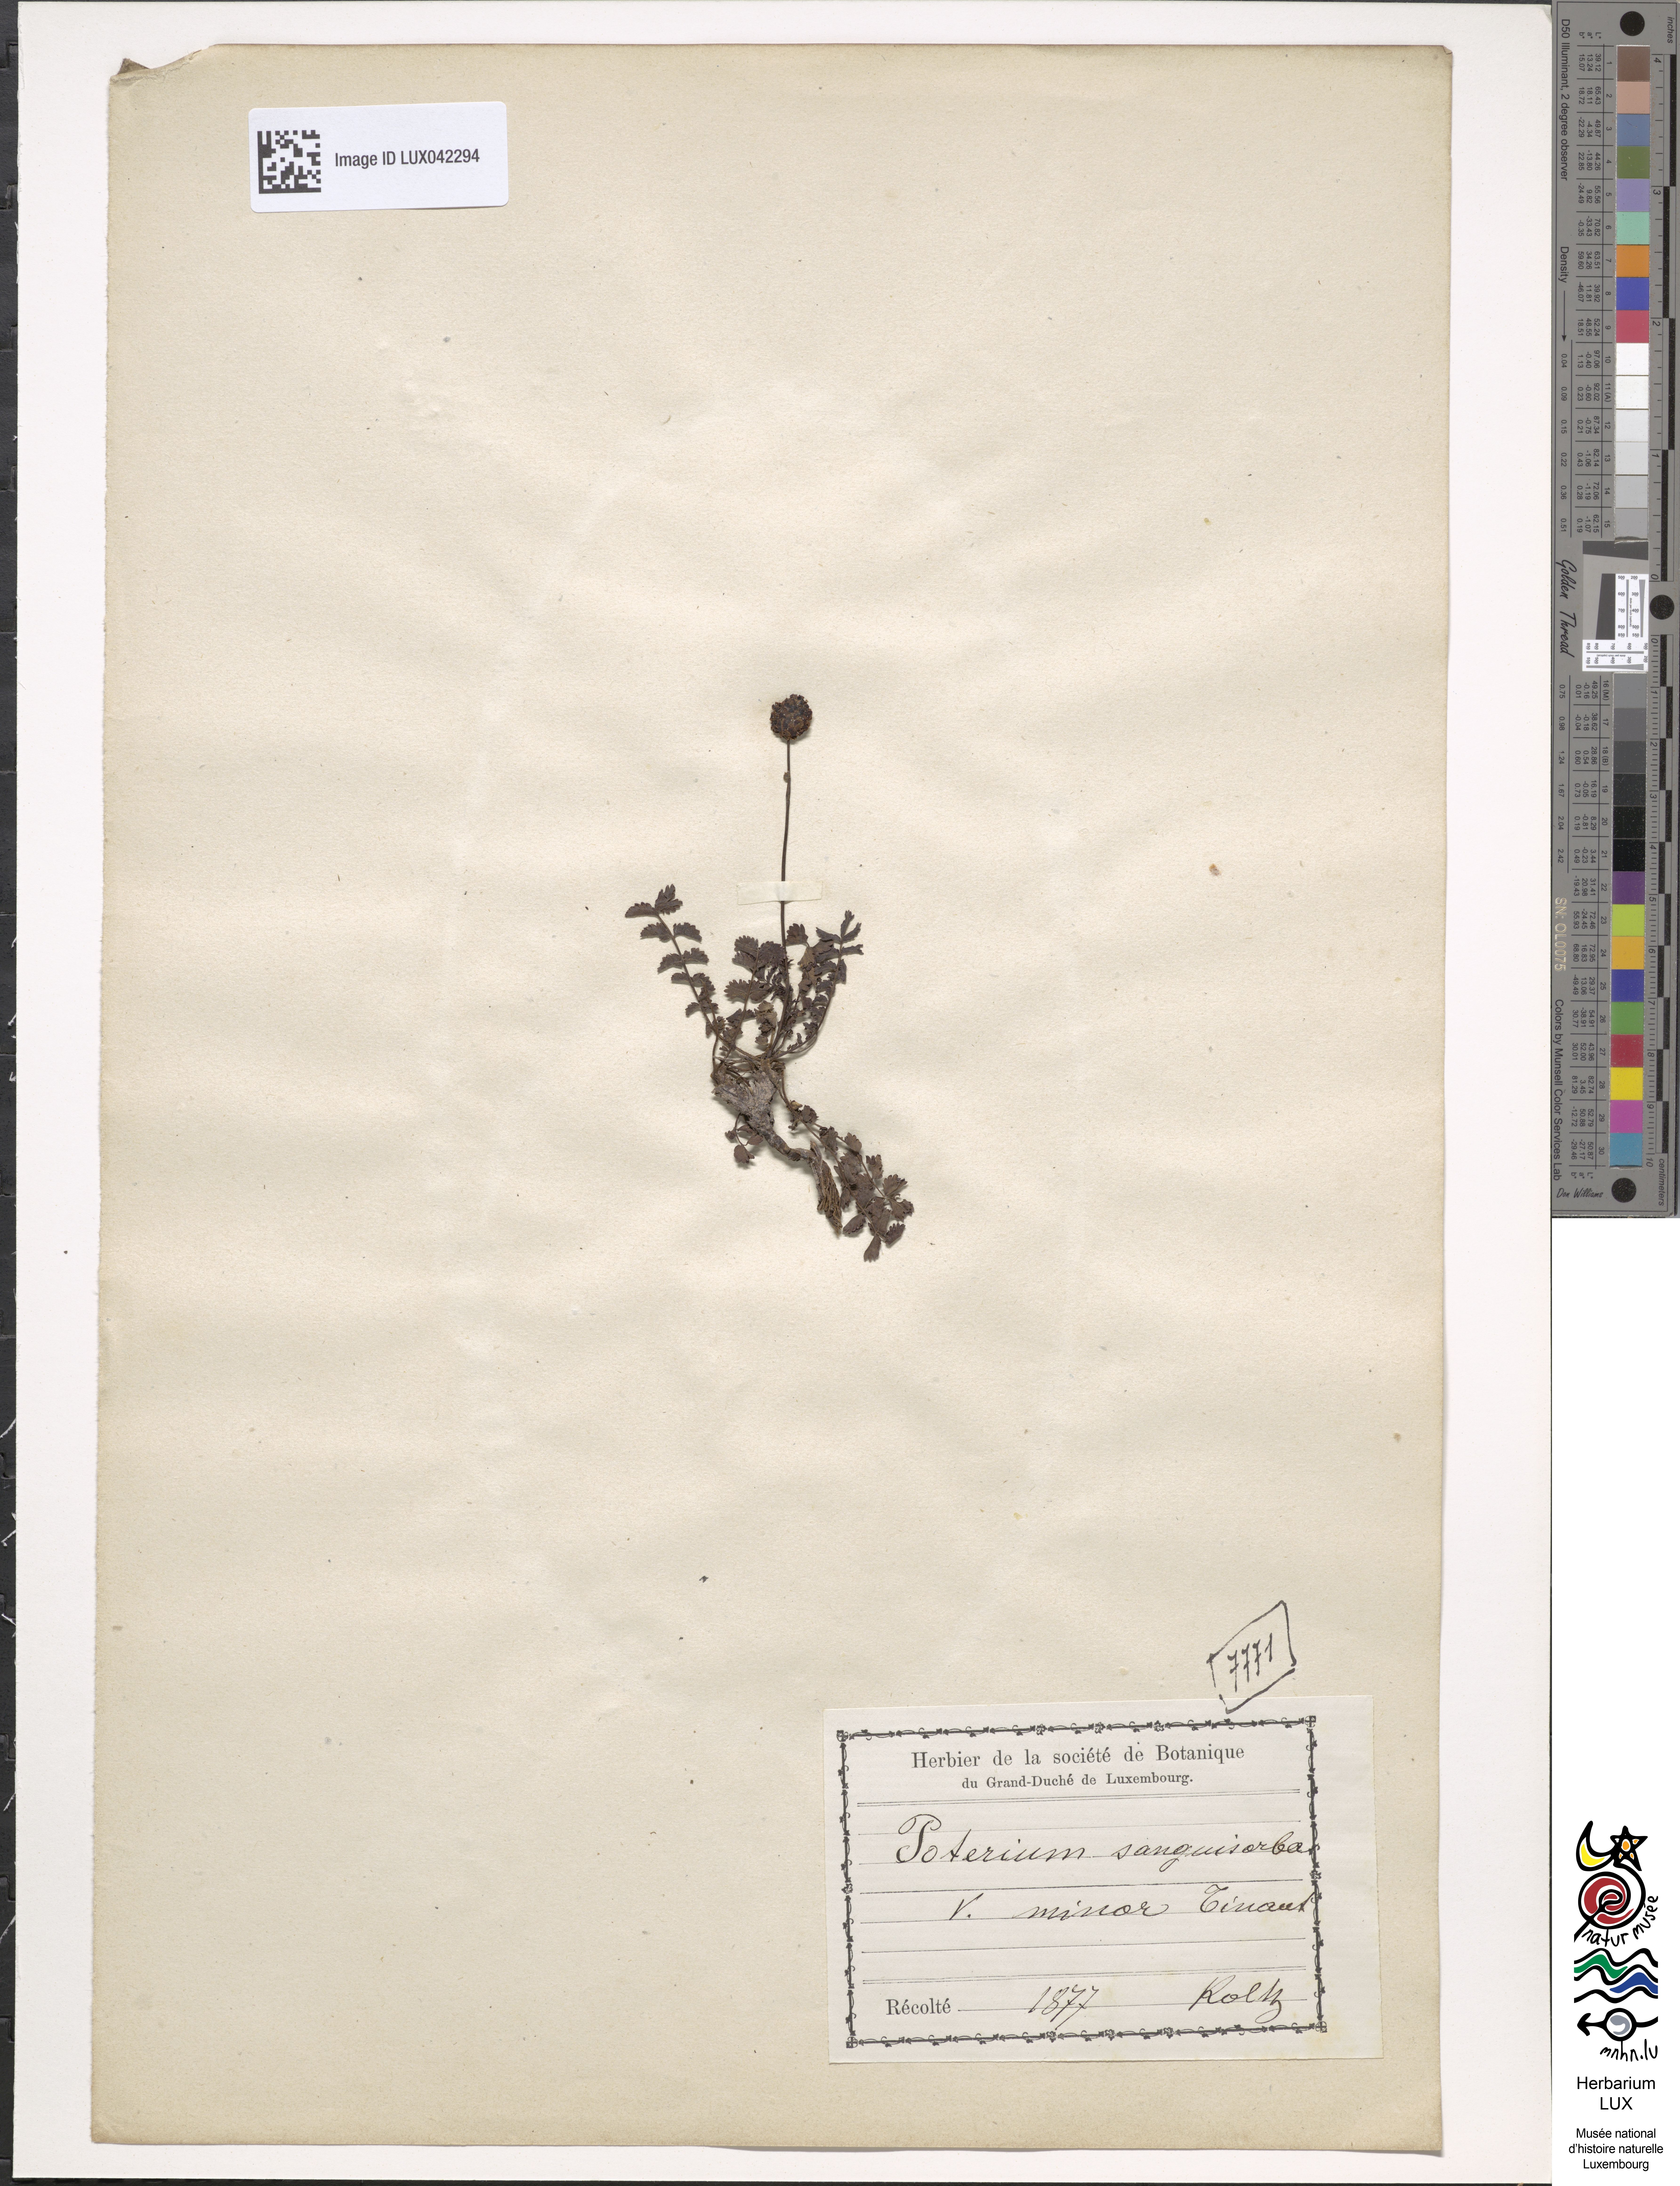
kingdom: Plantae
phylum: Tracheophyta
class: Magnoliopsida
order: Rosales
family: Rosaceae
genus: Poterium
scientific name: Poterium sanguisorba
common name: Salad burnet
